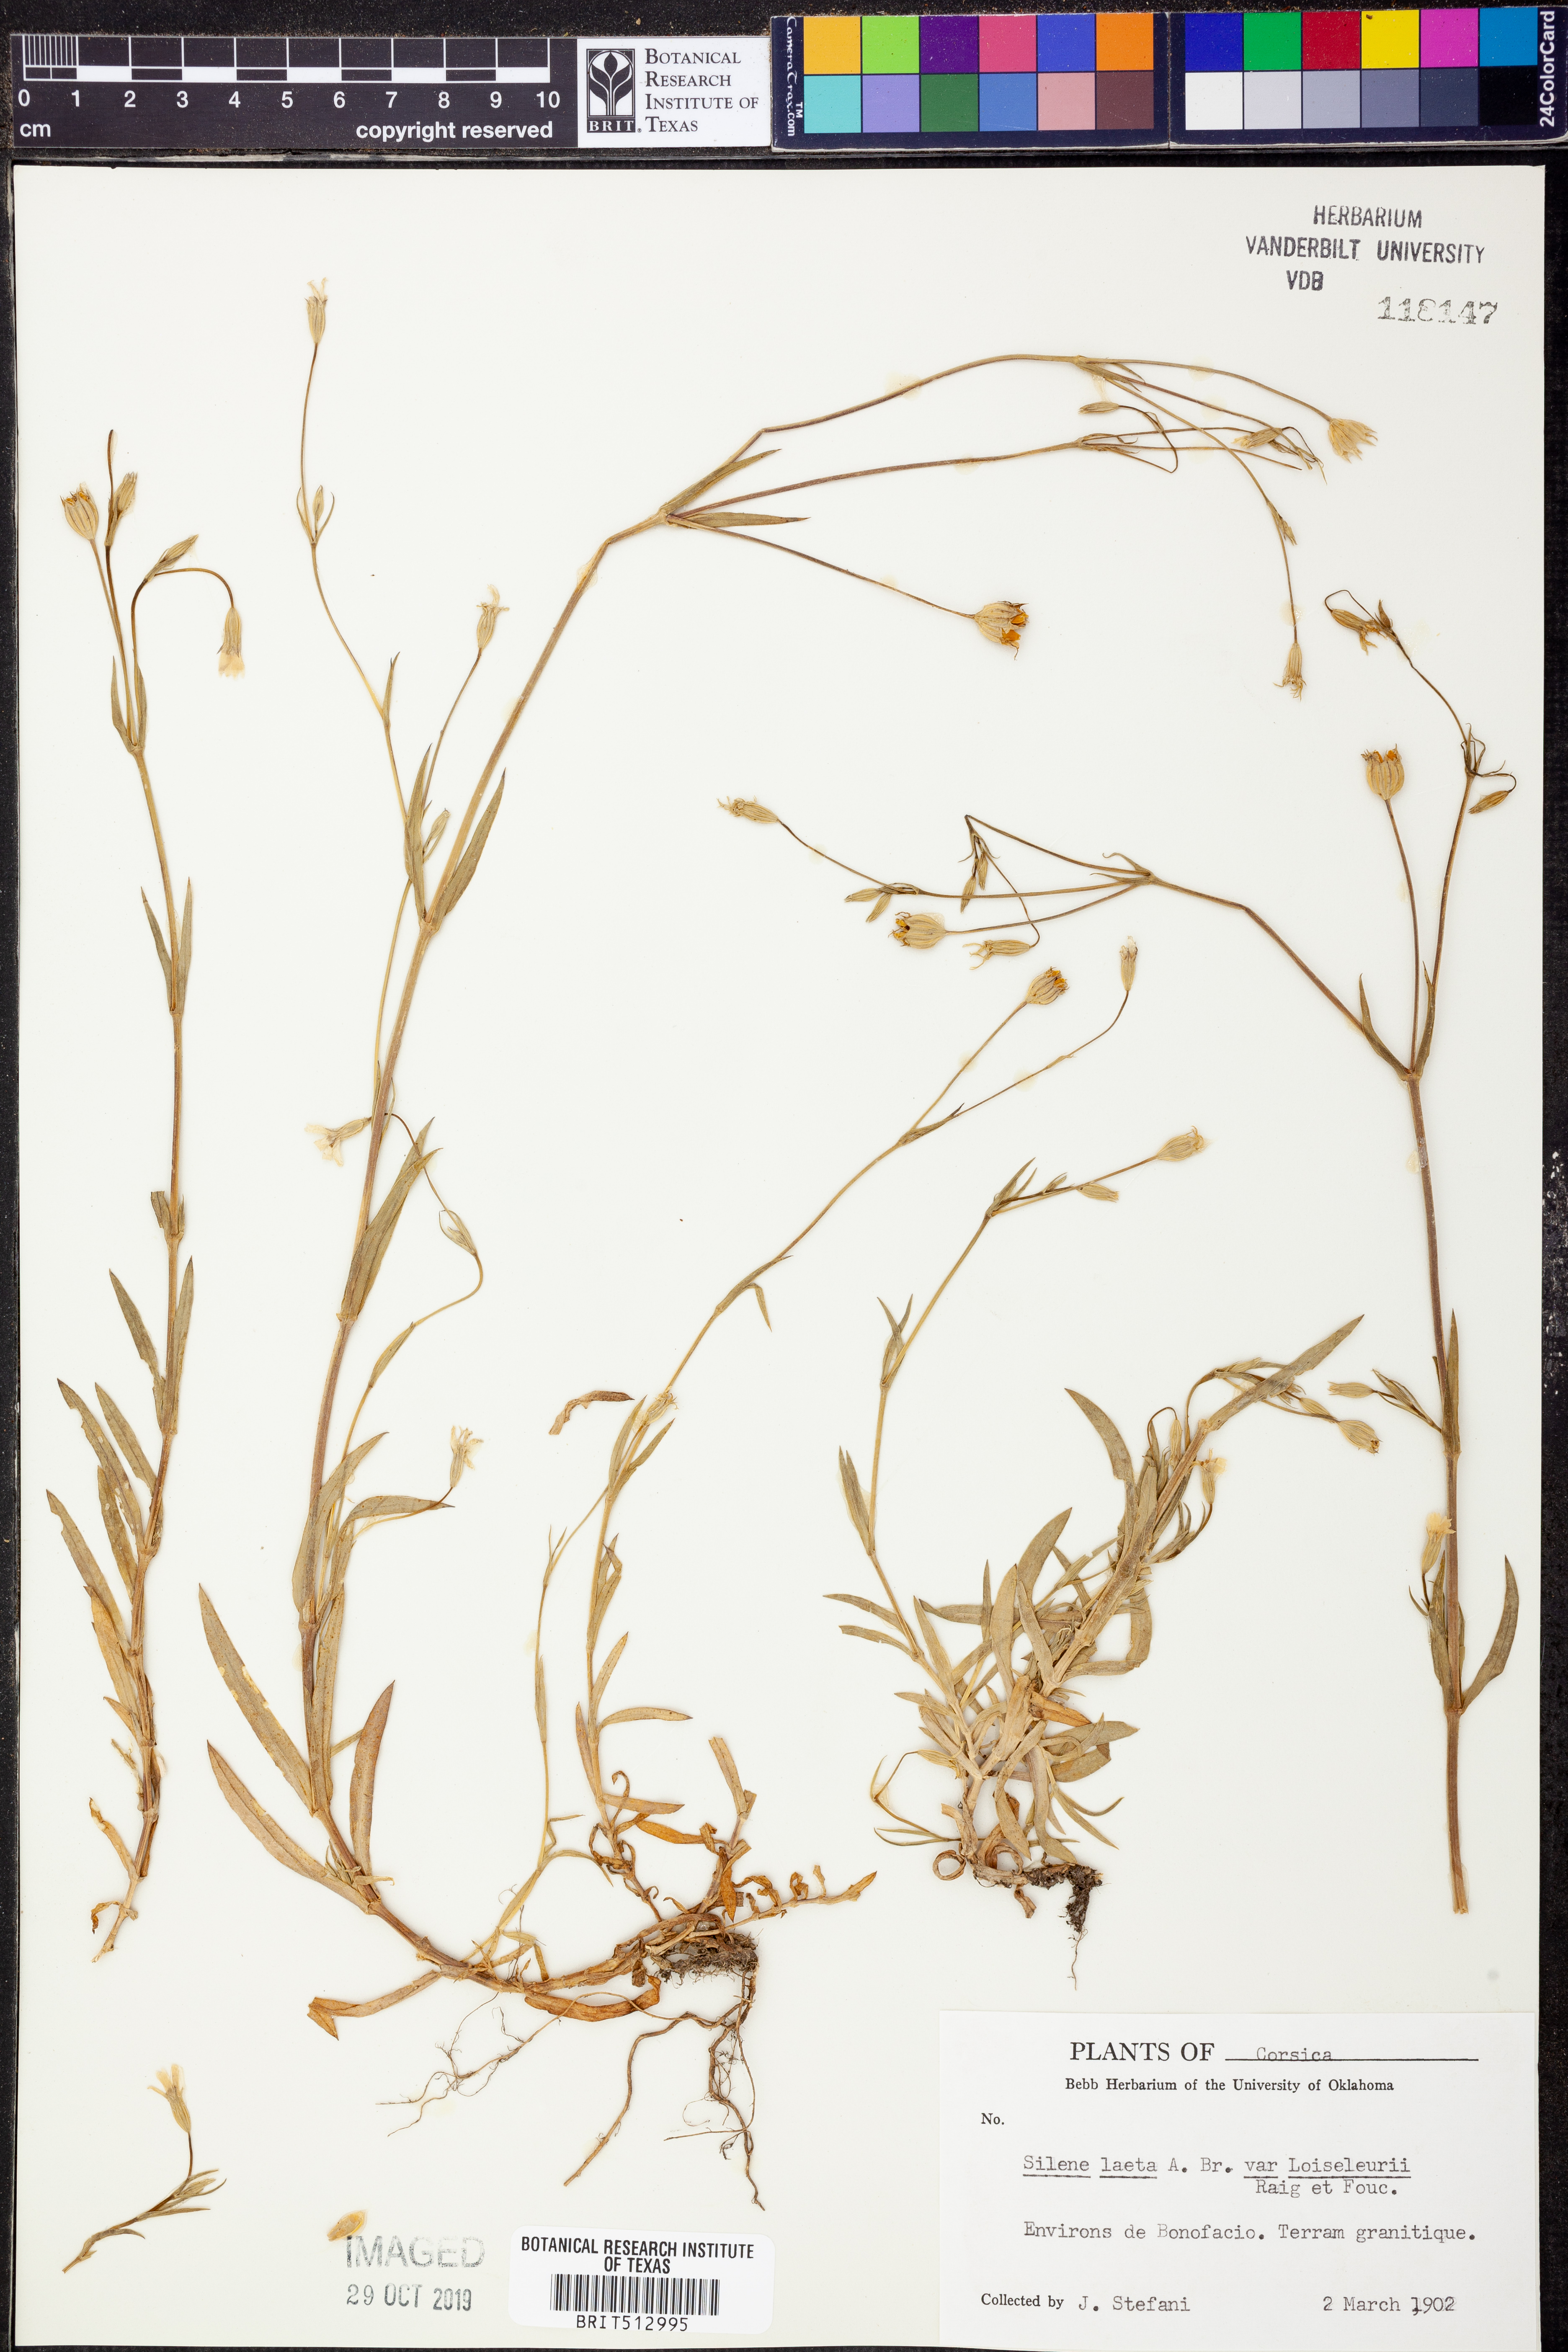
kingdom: Plantae
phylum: Tracheophyta
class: Magnoliopsida
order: Caryophyllales
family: Caryophyllaceae
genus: Eudianthe
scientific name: Eudianthe laeta
